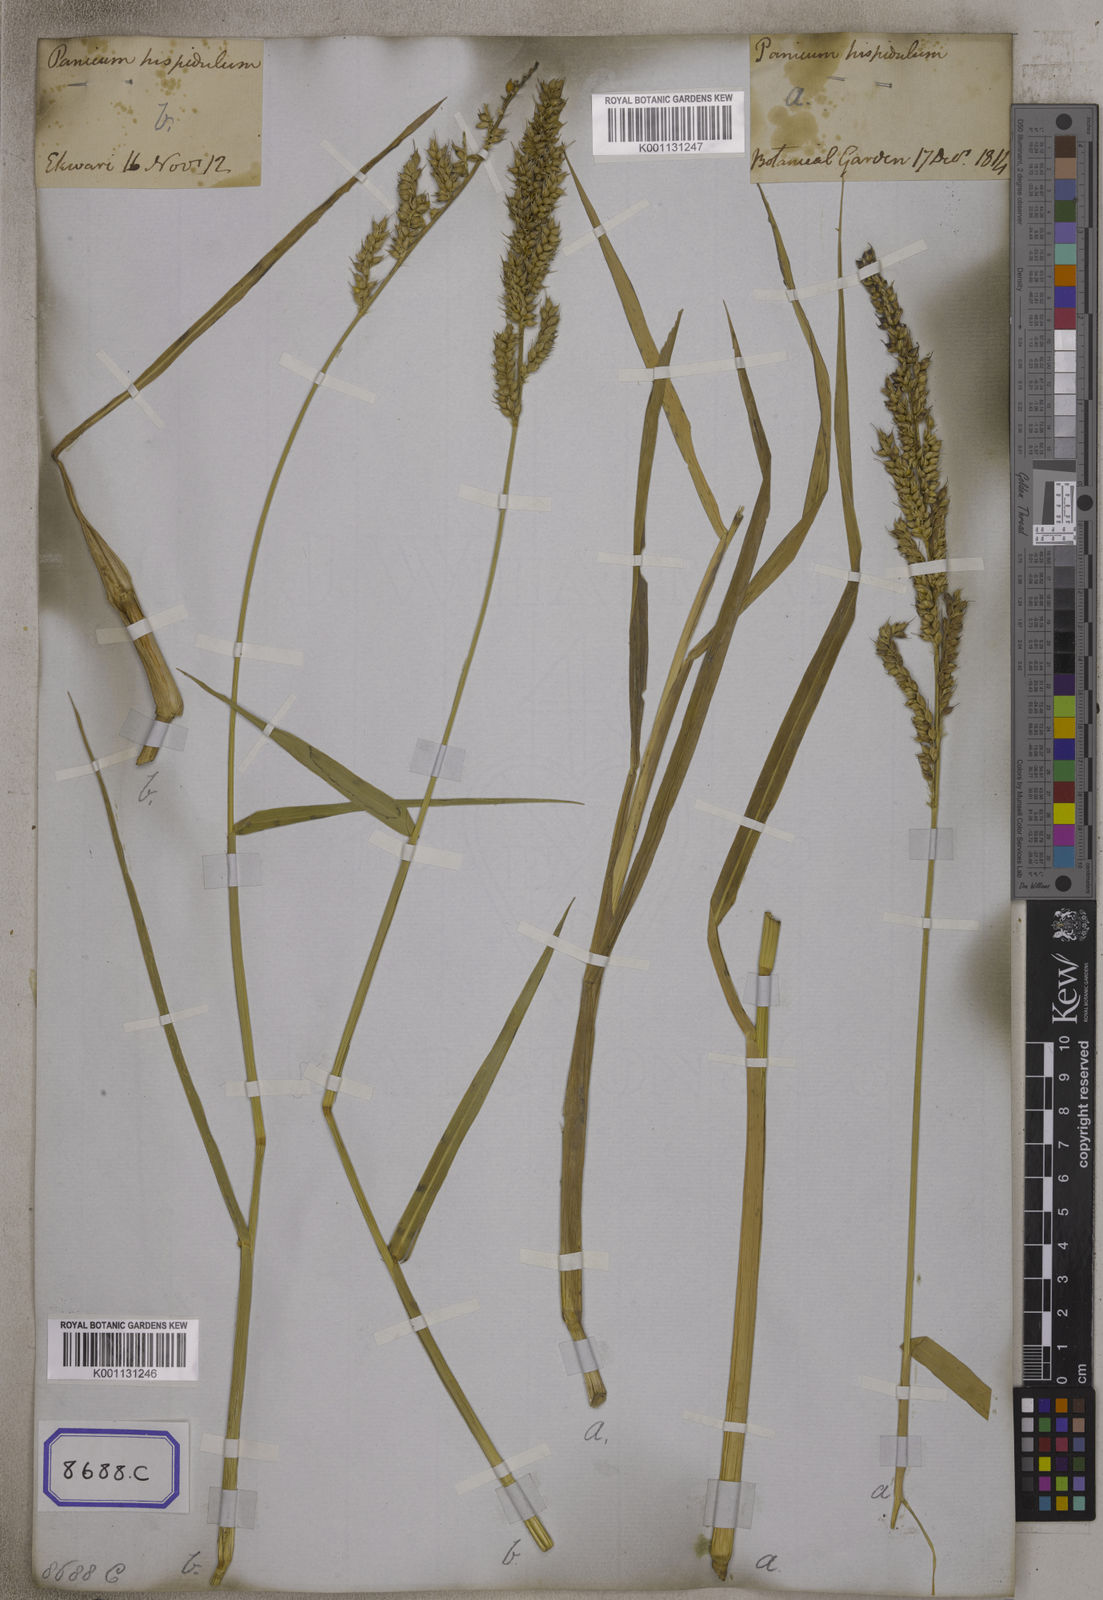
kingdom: Plantae
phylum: Tracheophyta
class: Liliopsida
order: Poales
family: Poaceae
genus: Echinochloa
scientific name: Echinochloa stagnina
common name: Burgu grass
